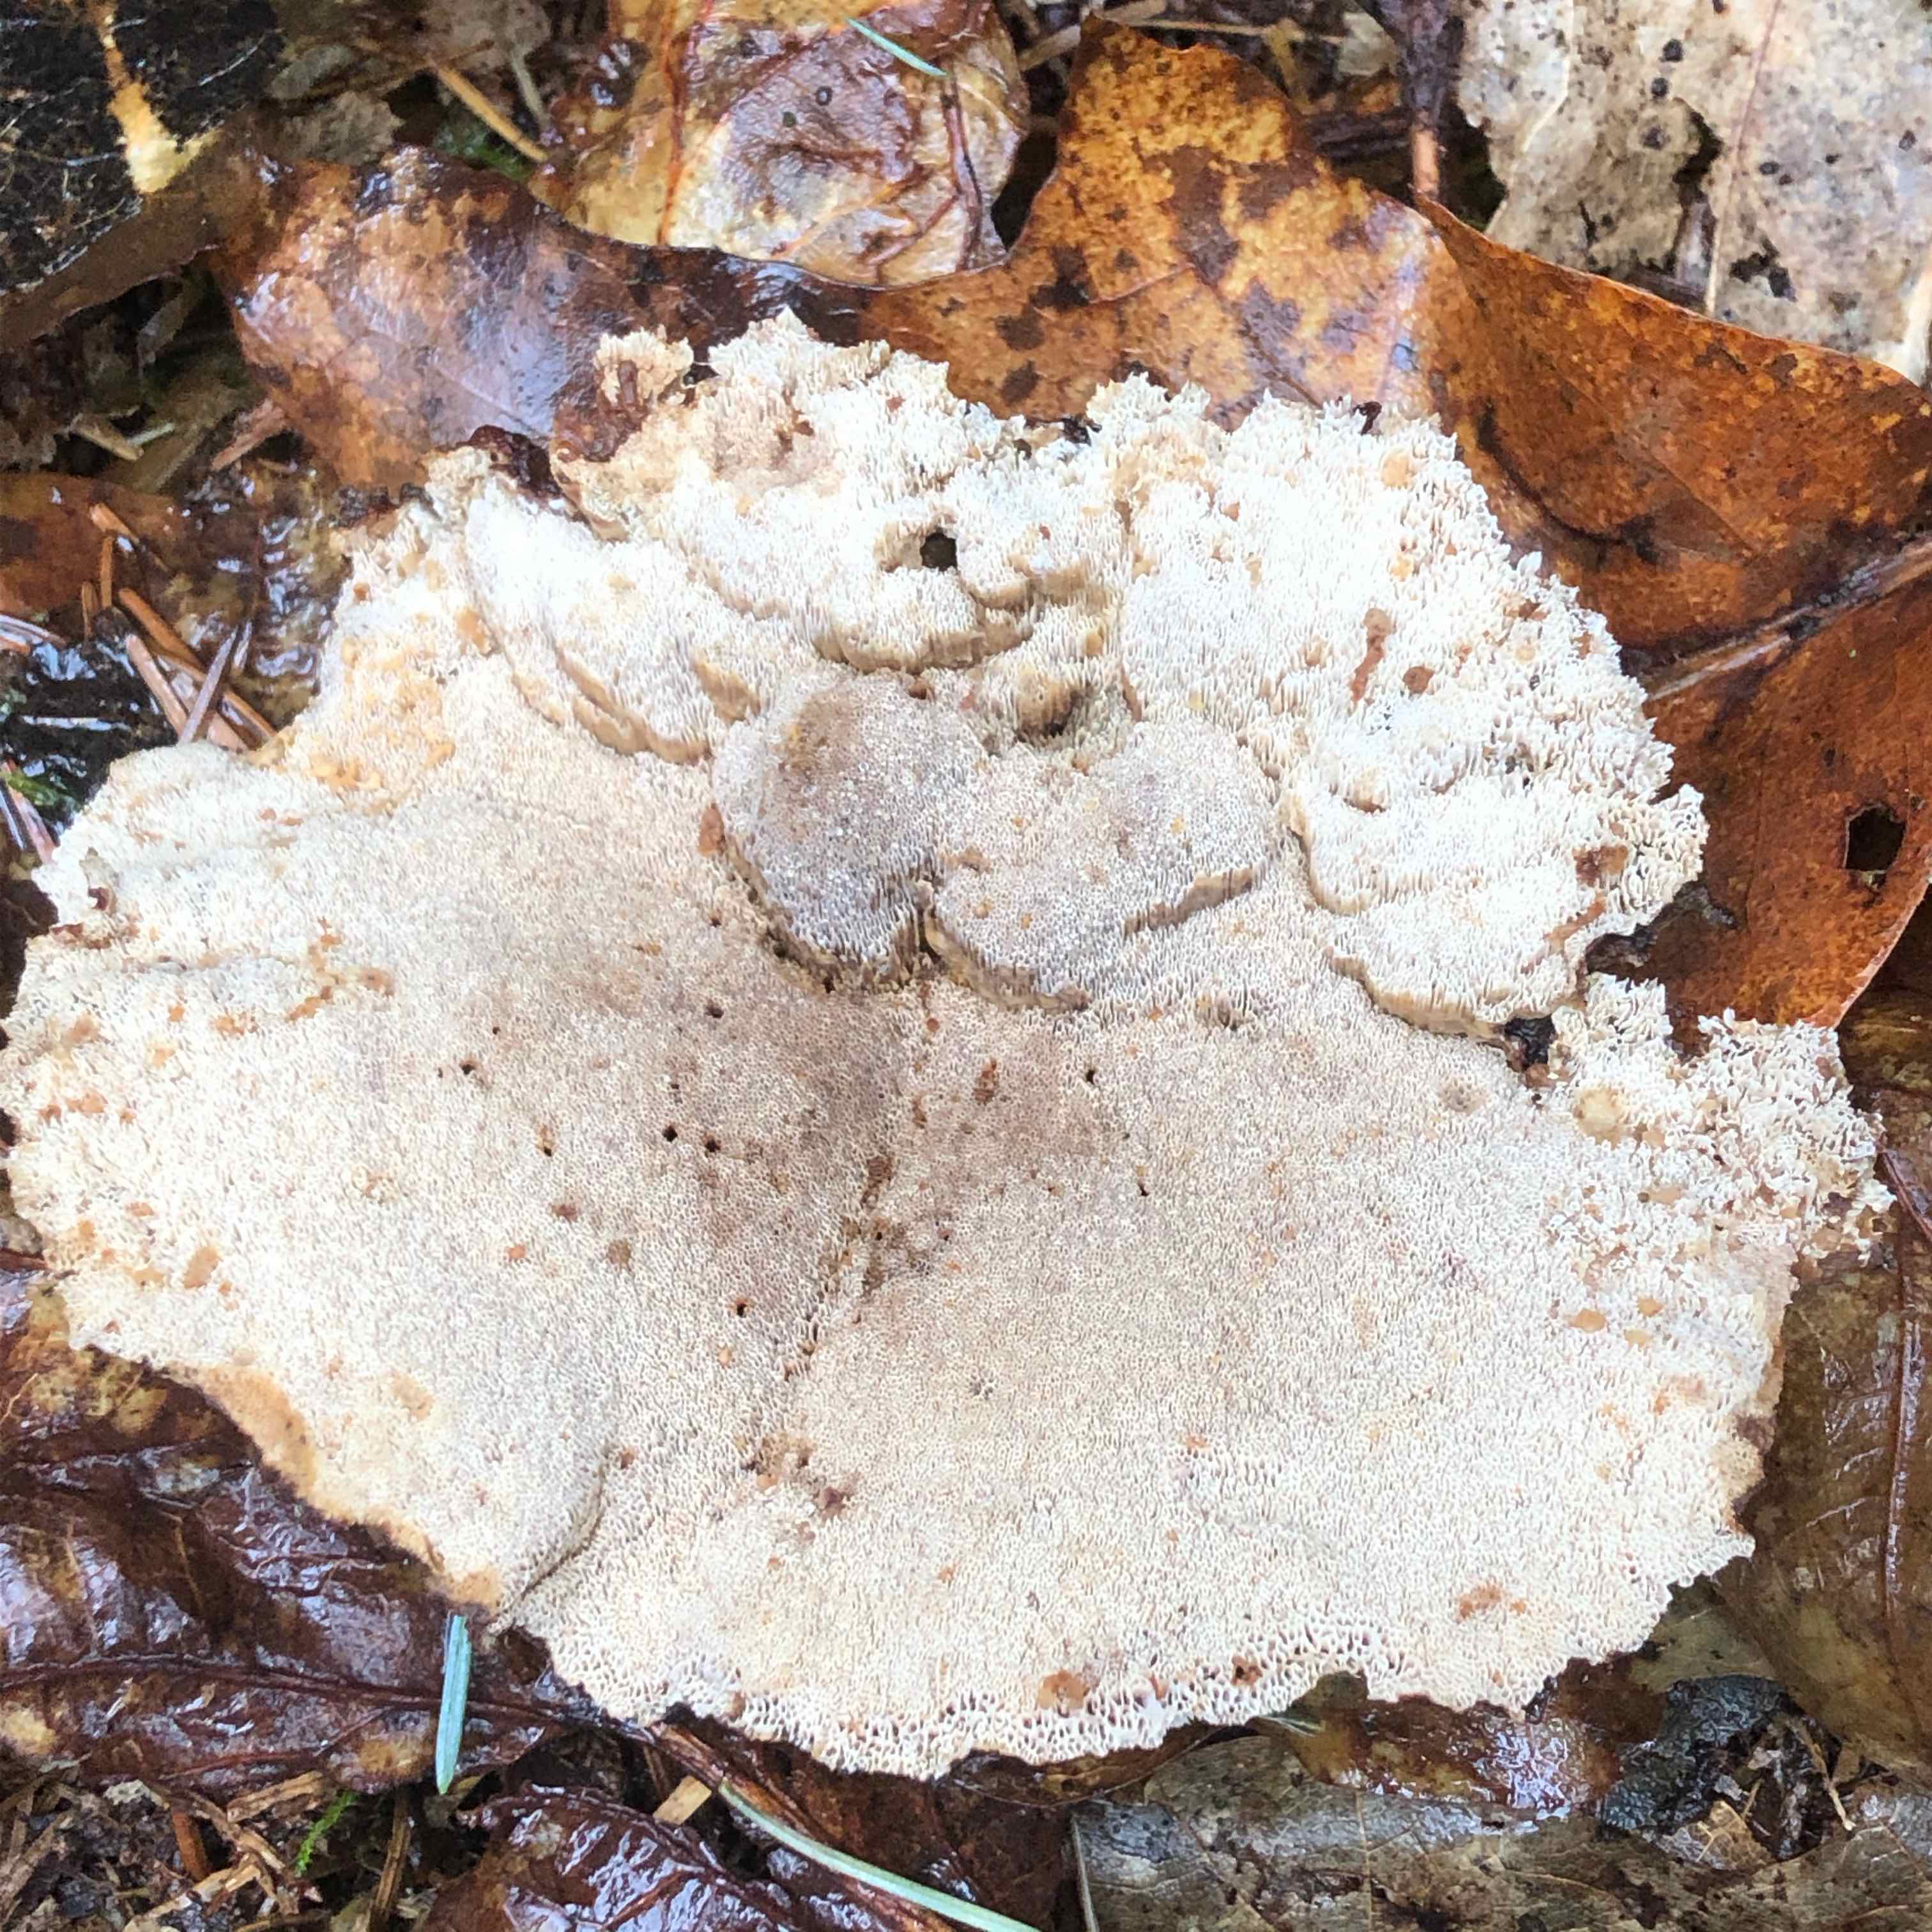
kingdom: Fungi
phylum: Basidiomycota
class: Agaricomycetes
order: Polyporales
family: Ischnodermataceae
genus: Ischnoderma
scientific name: Ischnoderma benzoinum
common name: gran-tjæreporesvamp
